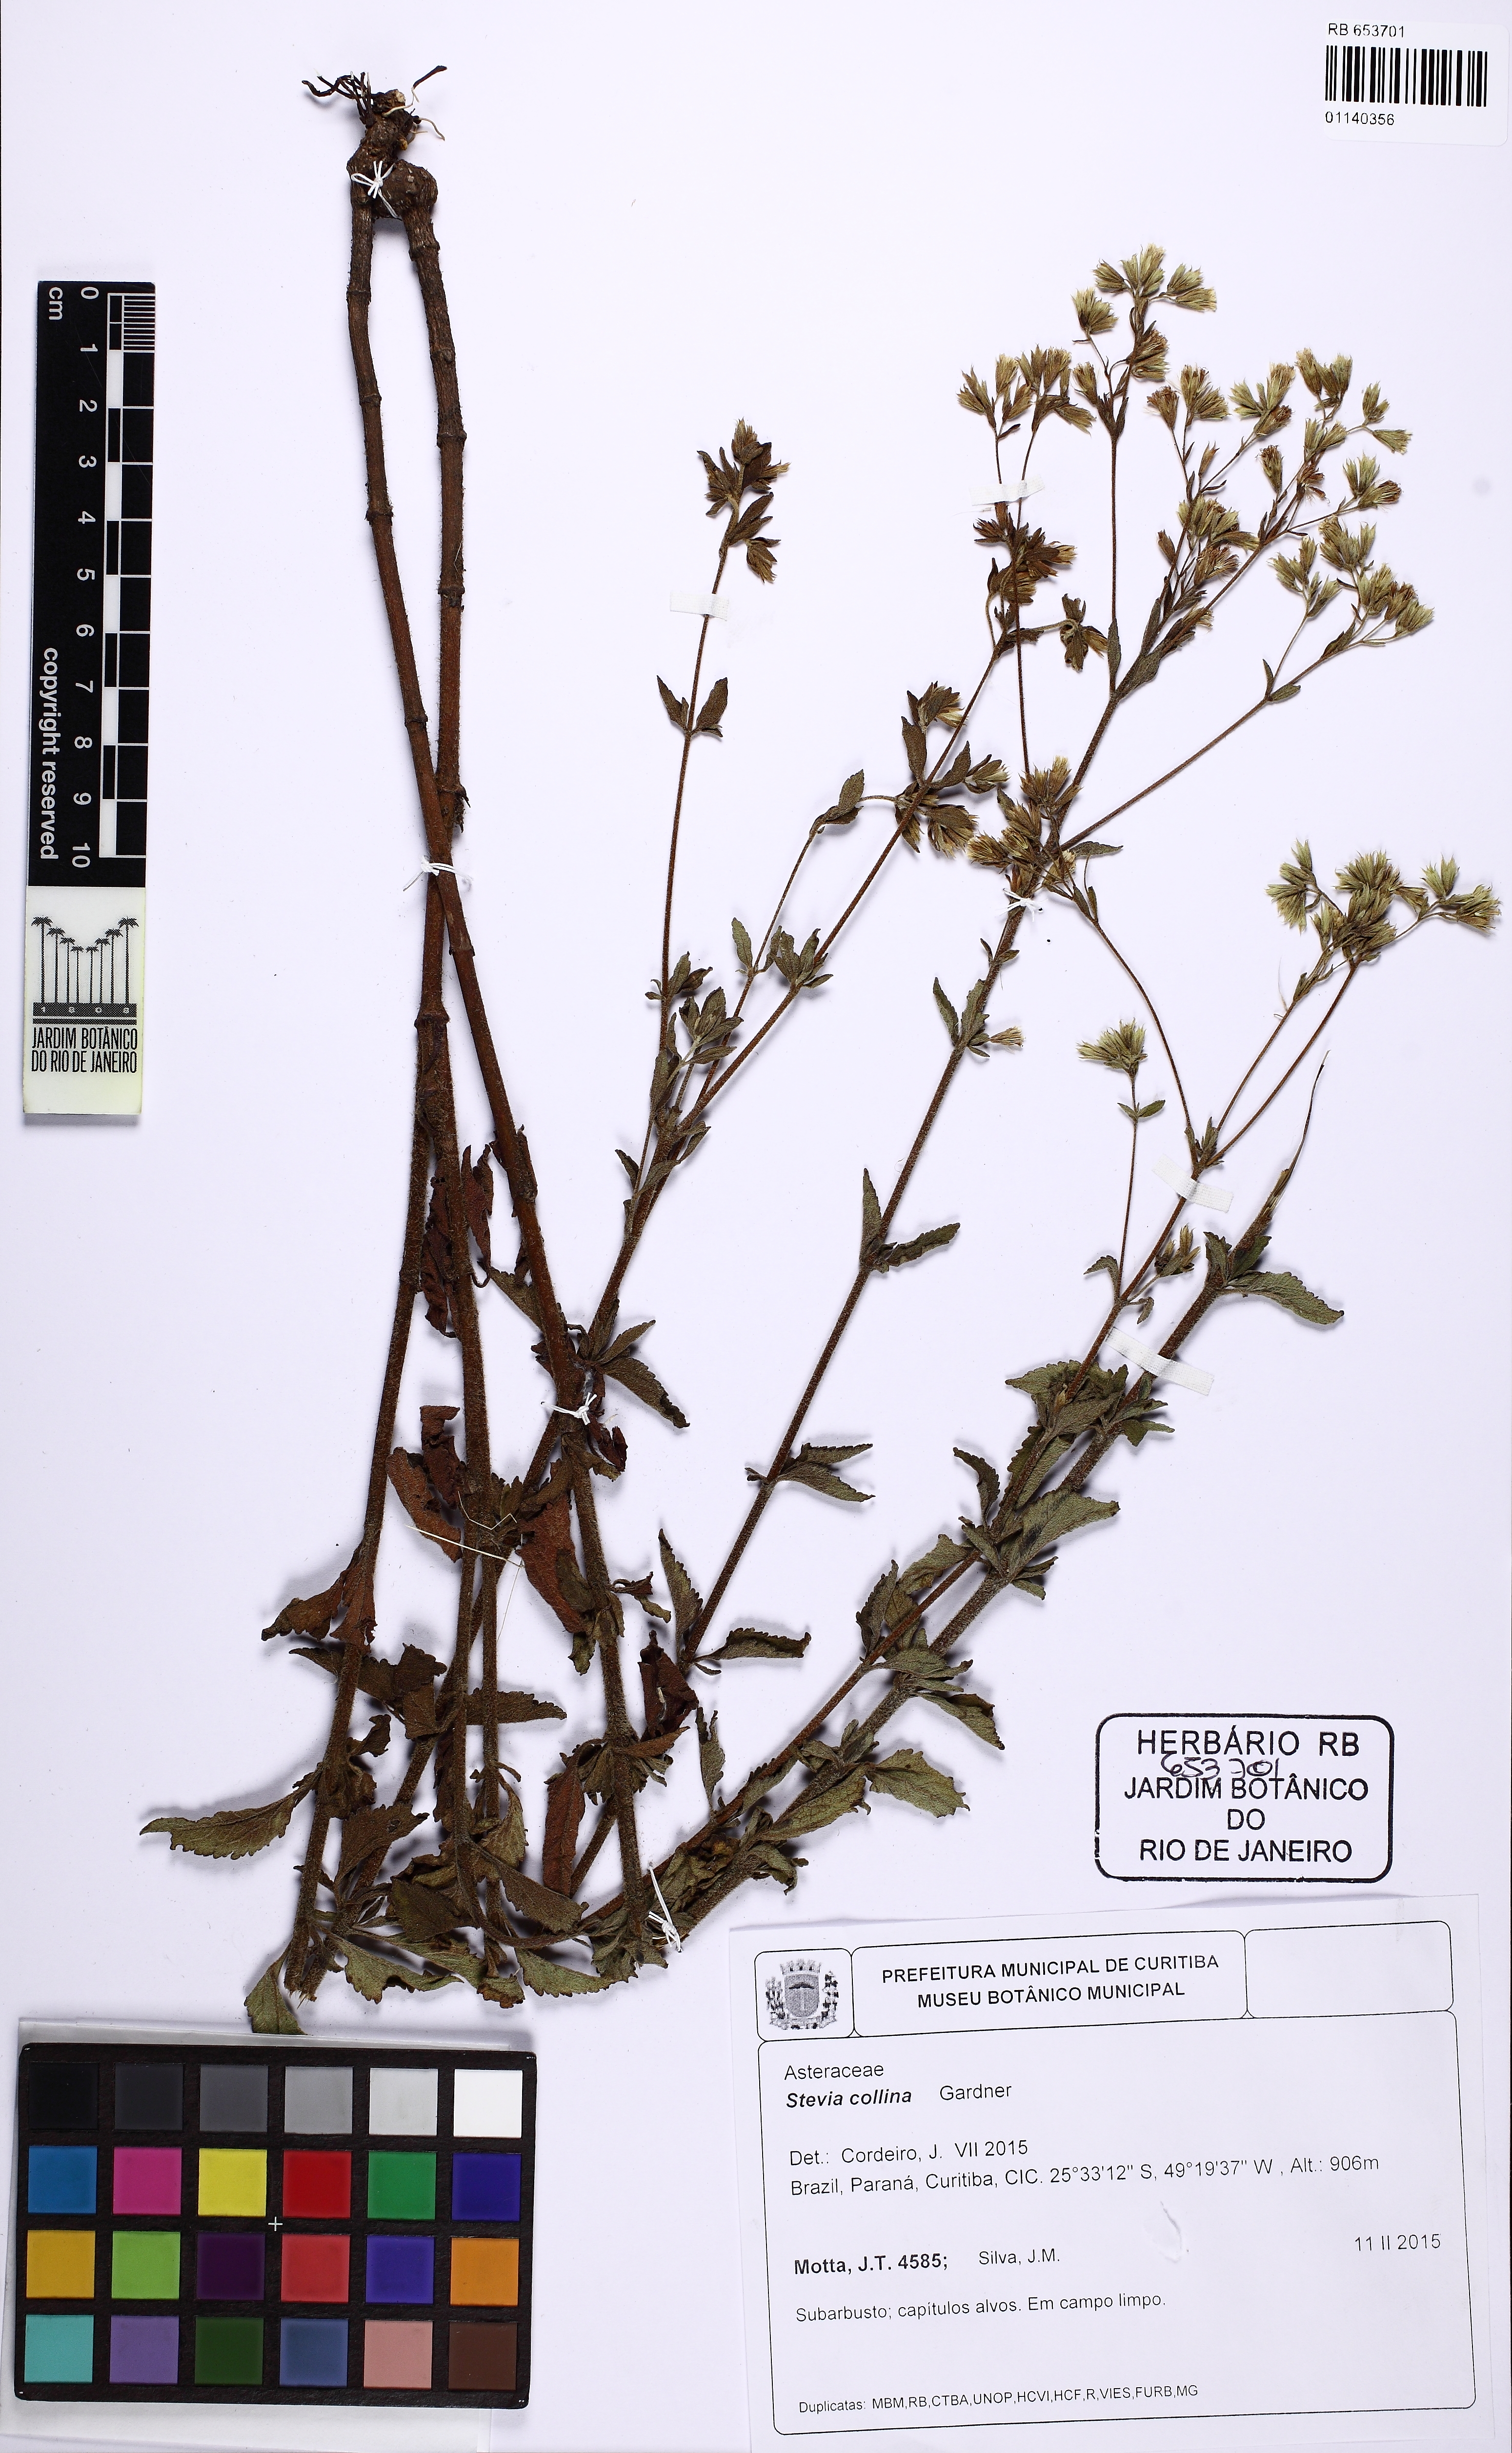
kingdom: Plantae
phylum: Tracheophyta
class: Magnoliopsida
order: Asterales
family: Asteraceae
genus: Stevia
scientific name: Stevia collina
